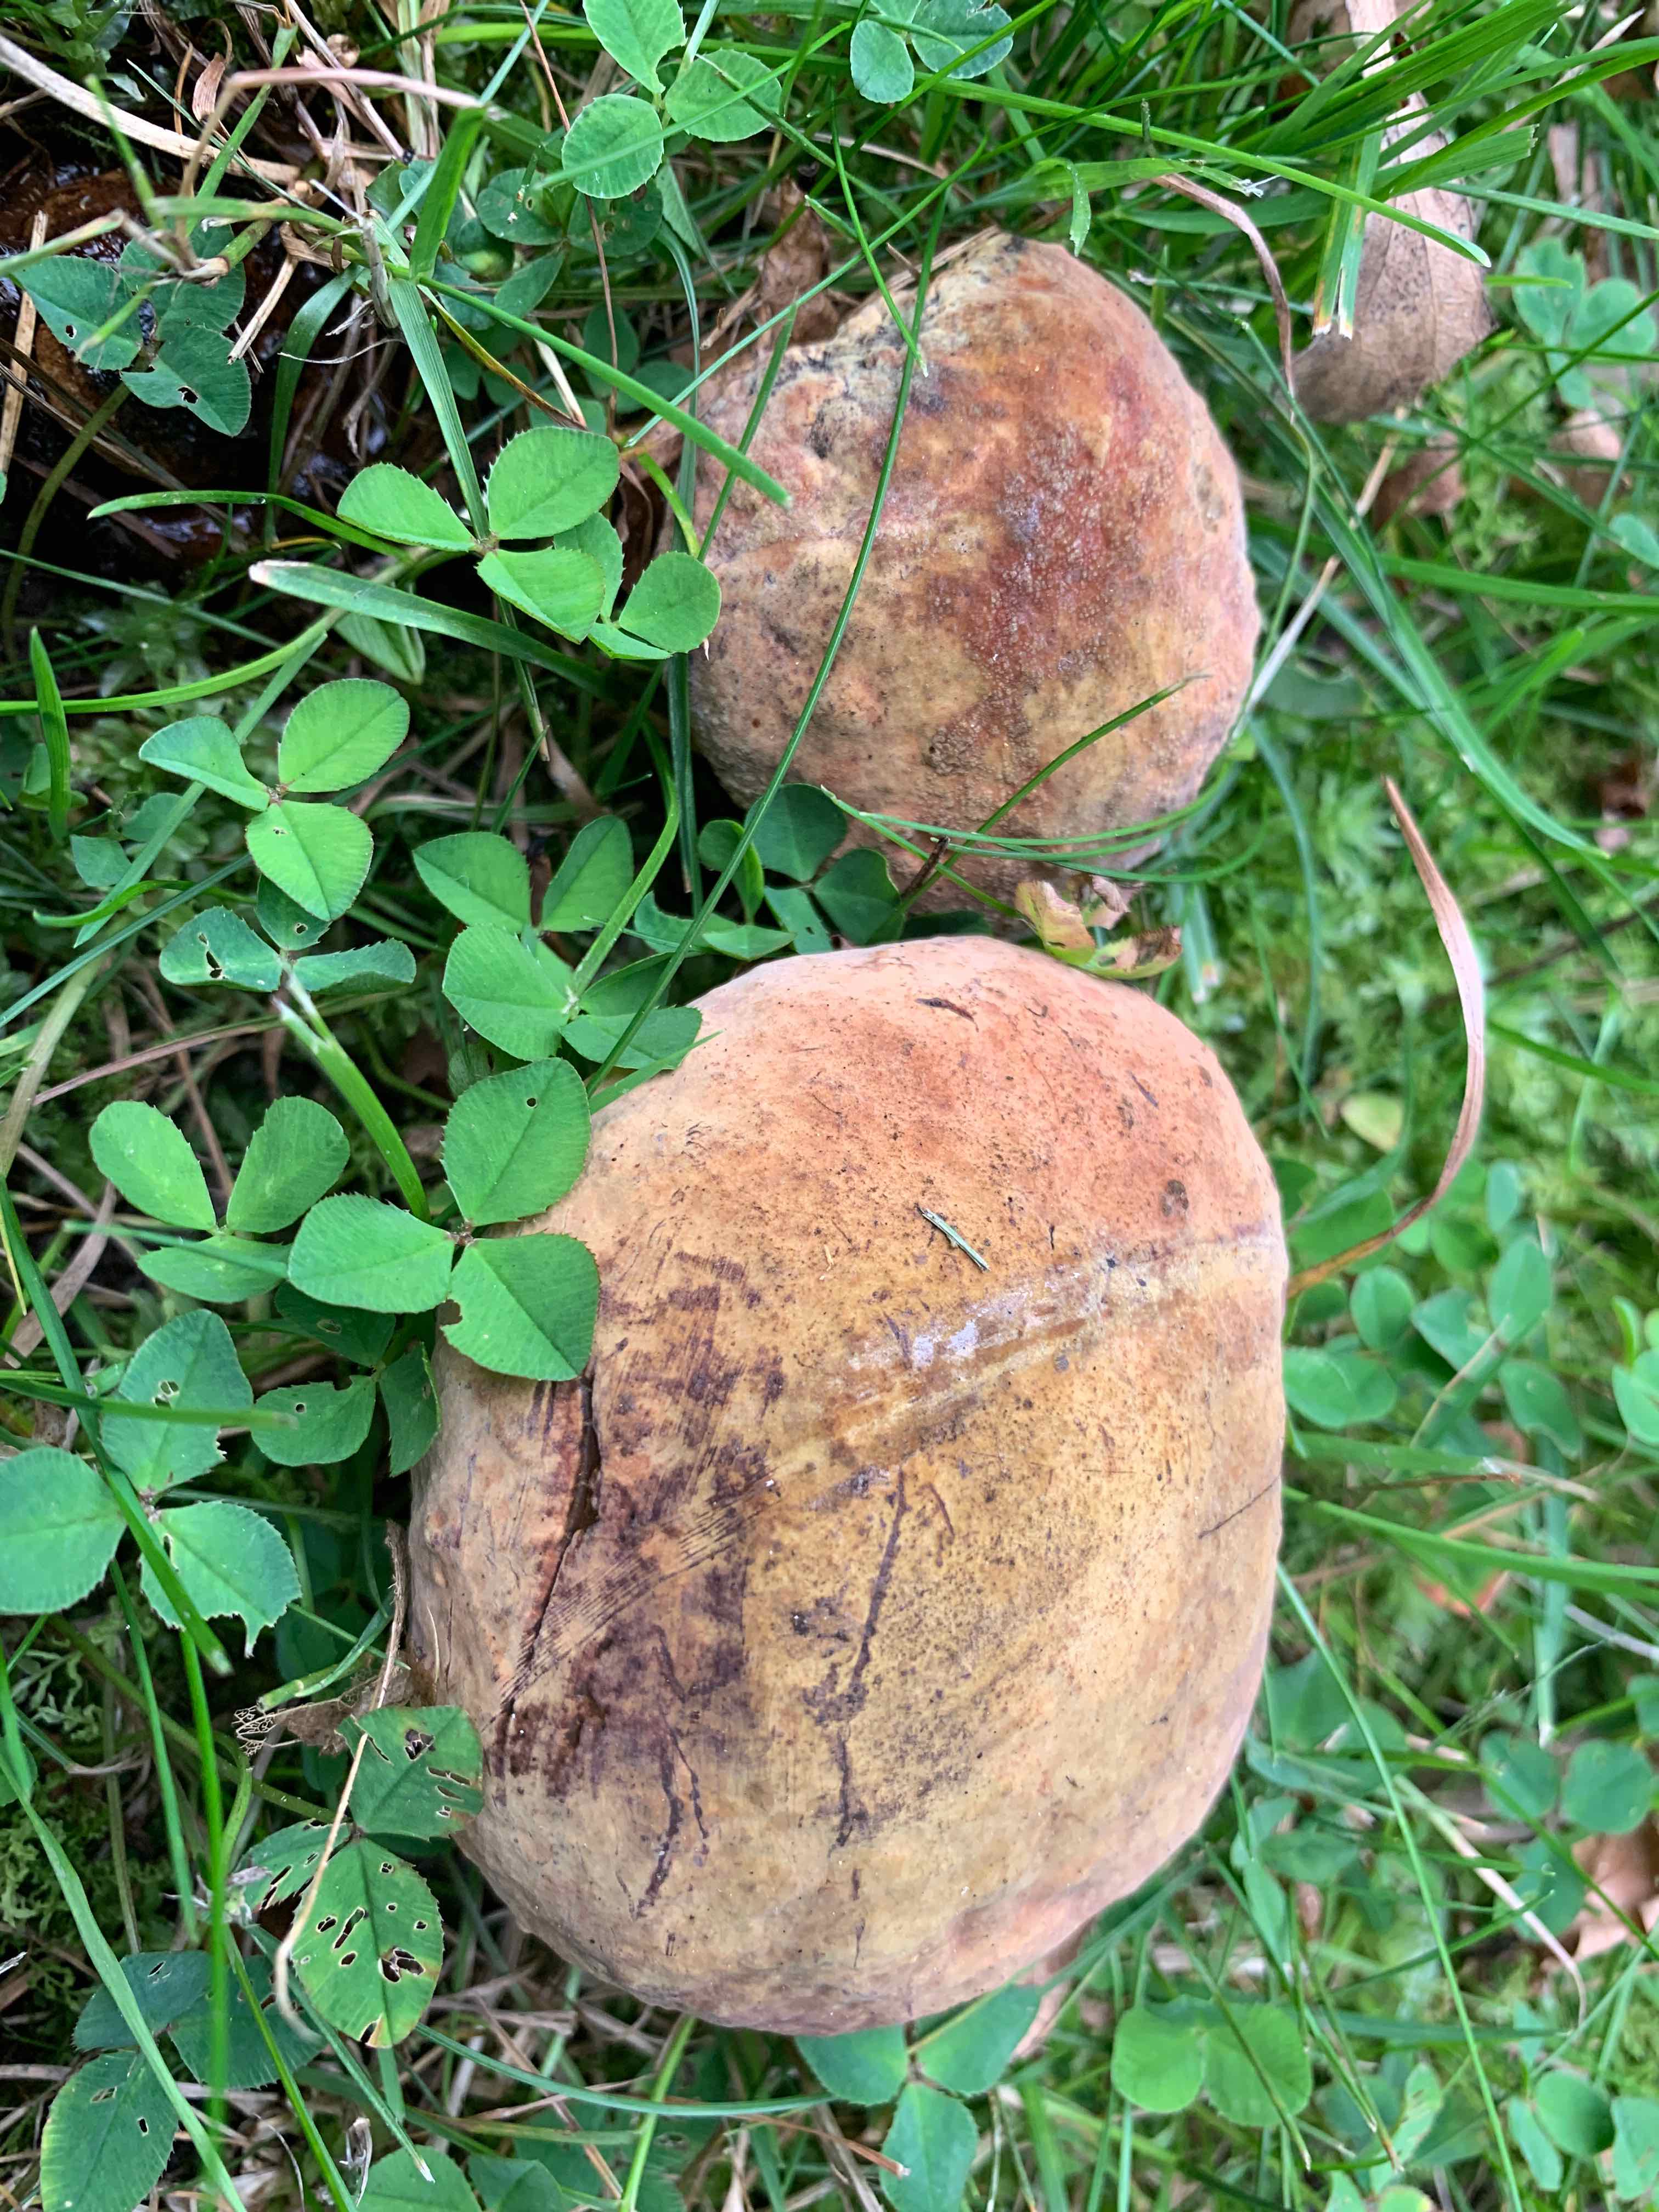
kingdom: Fungi
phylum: Basidiomycota
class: Agaricomycetes
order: Boletales
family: Boletaceae
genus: Suillellus
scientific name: Suillellus luridus
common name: netstokket indigorørhat
